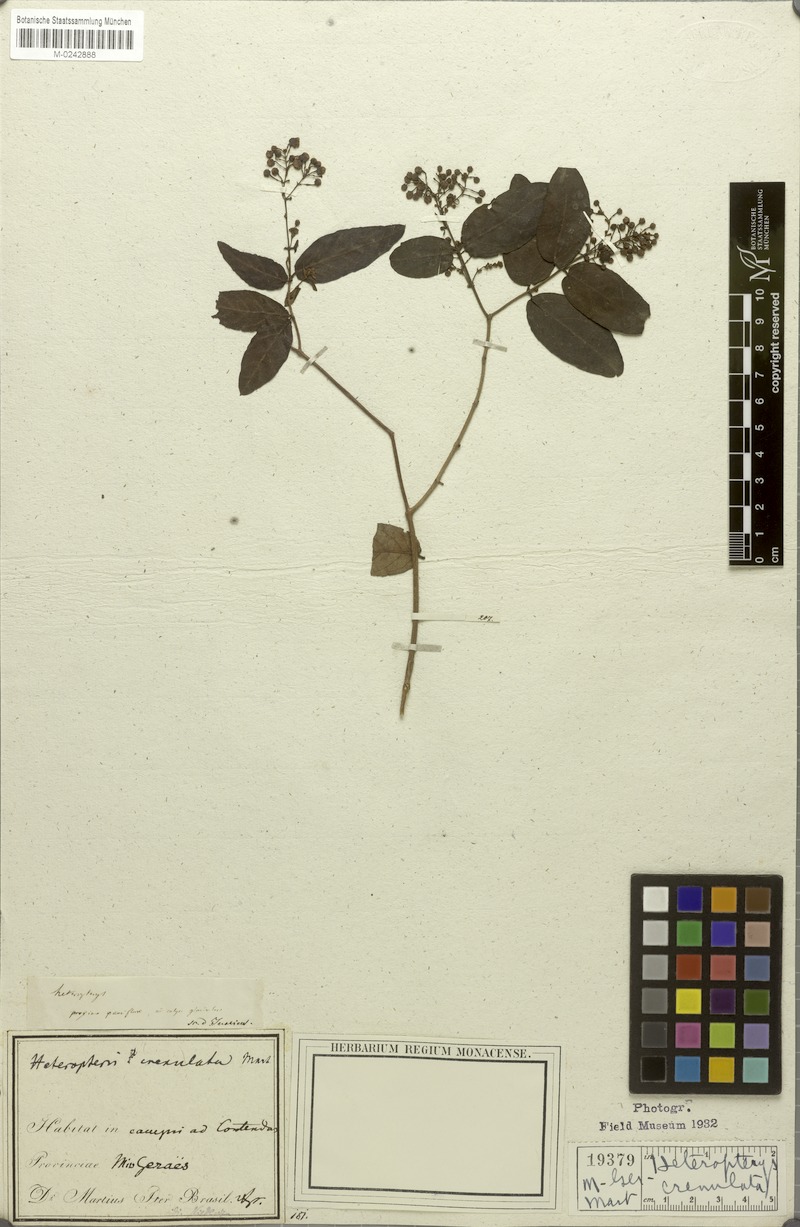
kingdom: Plantae
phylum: Tracheophyta
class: Magnoliopsida
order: Malpighiales
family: Malpighiaceae
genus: Heteropterys
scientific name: Heteropterys crenulata
